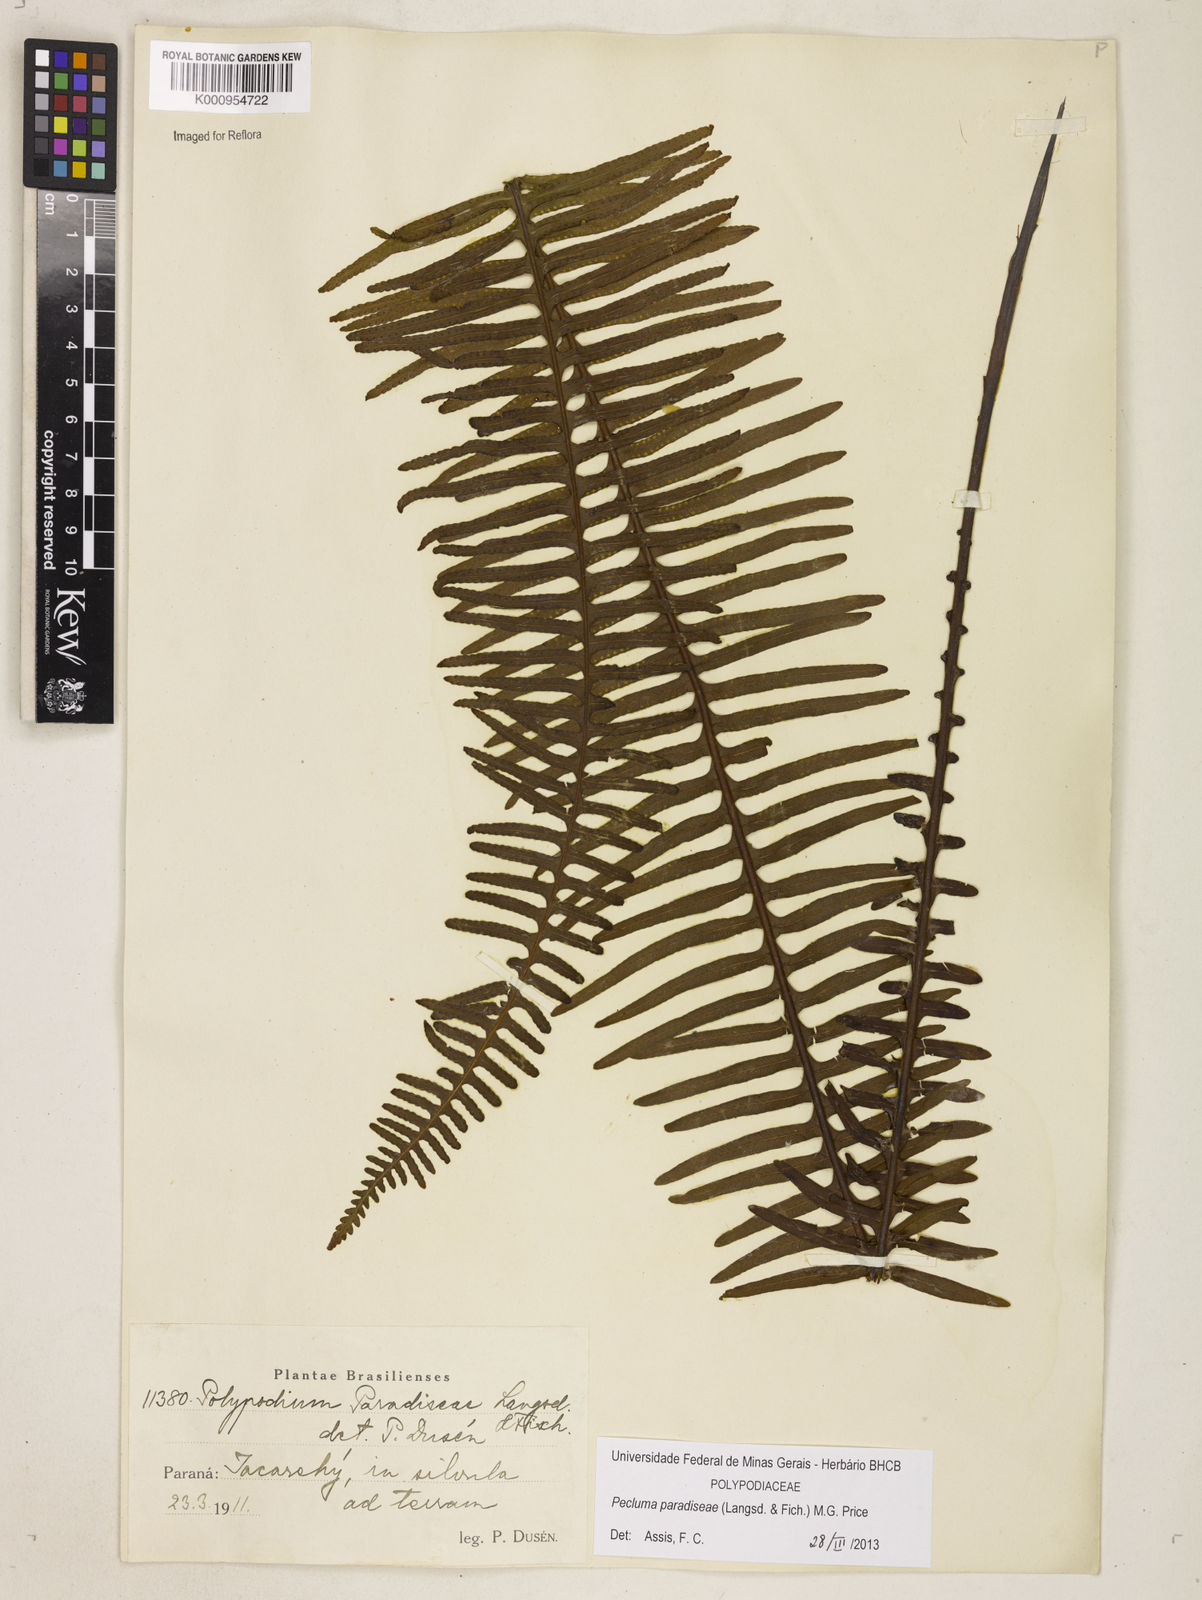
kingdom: Plantae
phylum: Tracheophyta
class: Polypodiopsida
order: Polypodiales
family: Polypodiaceae
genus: Pecluma
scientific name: Pecluma paradiseae
